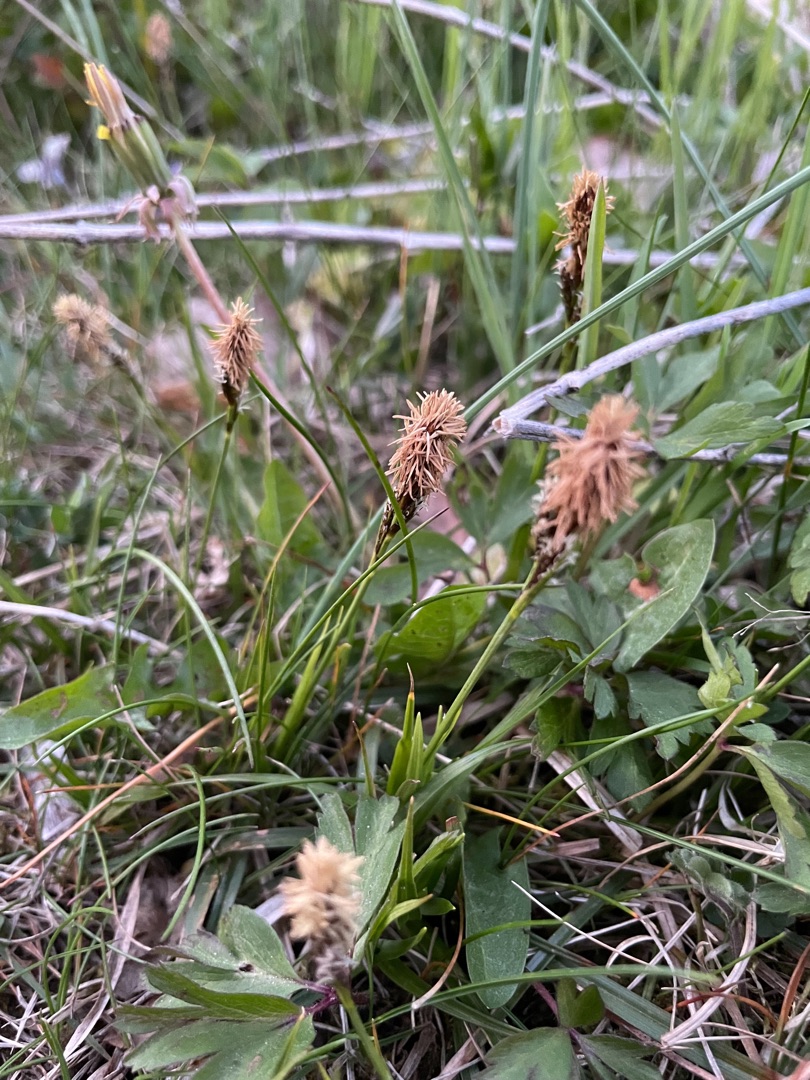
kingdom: Plantae
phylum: Tracheophyta
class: Liliopsida
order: Poales
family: Cyperaceae
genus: Carex
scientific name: Carex caryophyllea
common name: Vår-star
